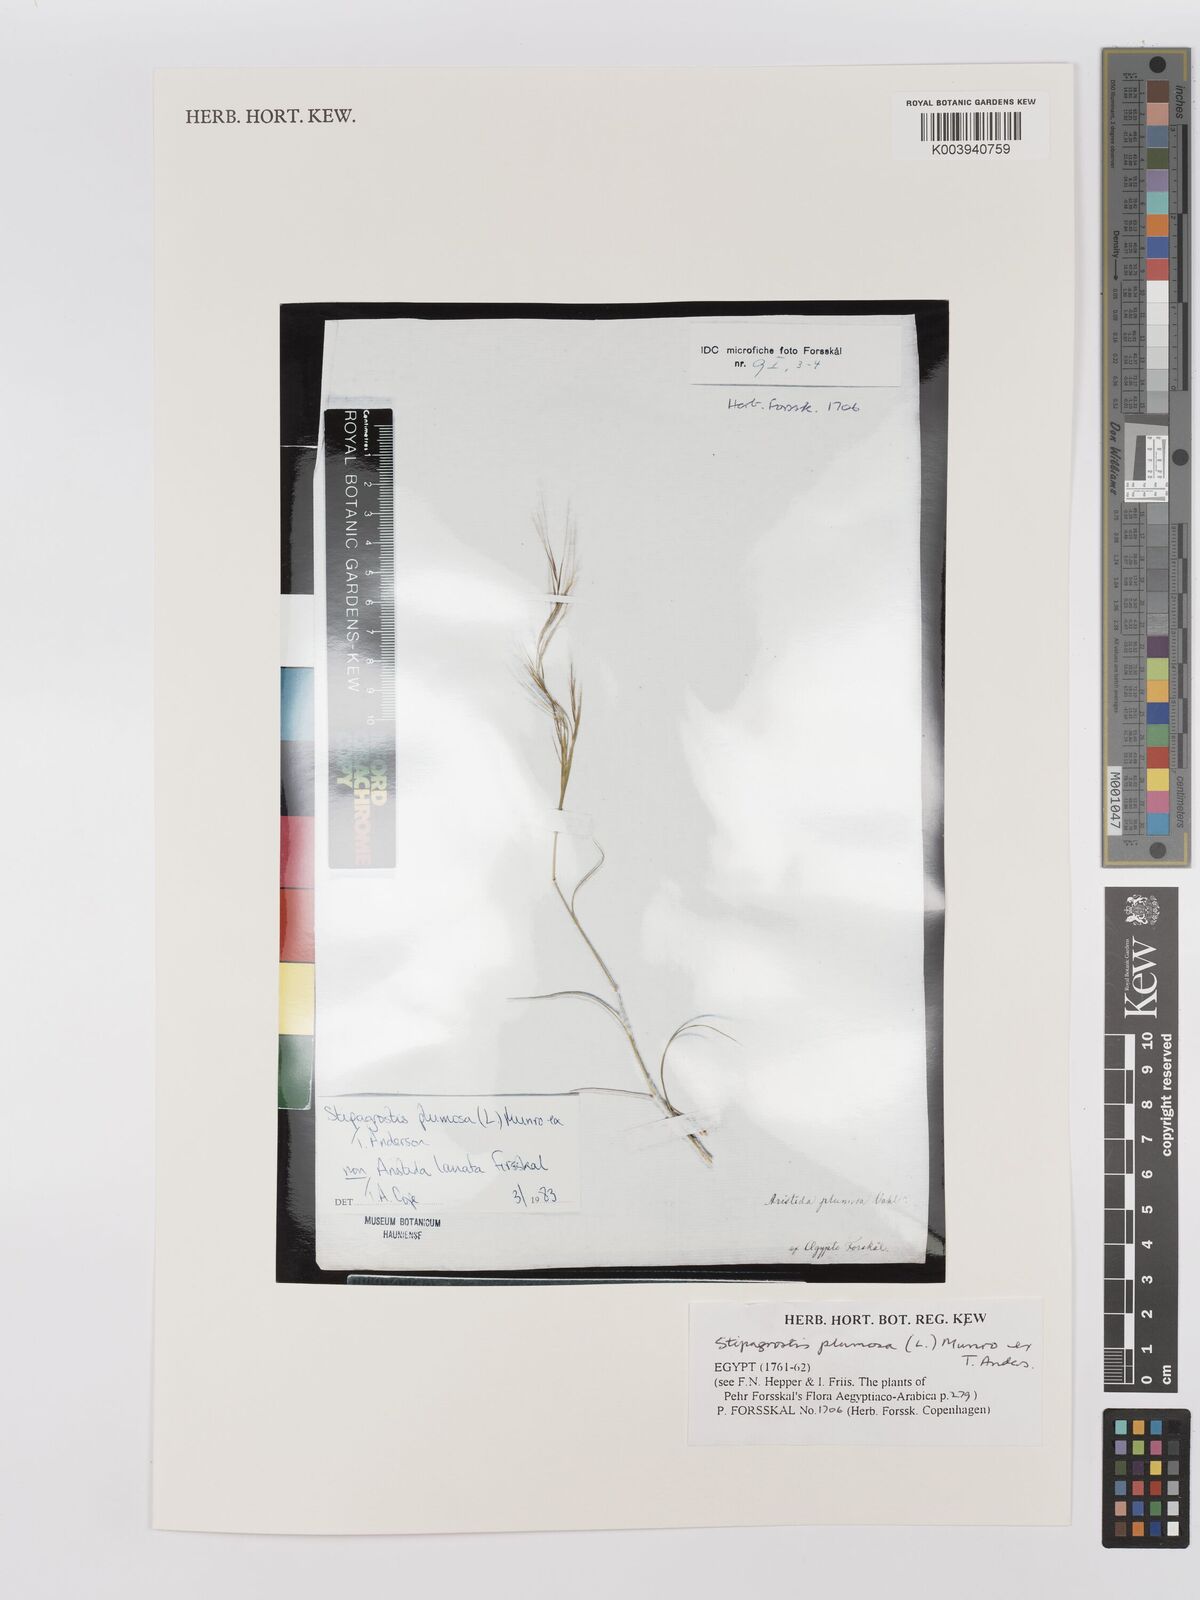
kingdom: Plantae
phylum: Tracheophyta
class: Liliopsida
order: Poales
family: Poaceae
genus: Stipagrostis
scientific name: Stipagrostis plumosa
